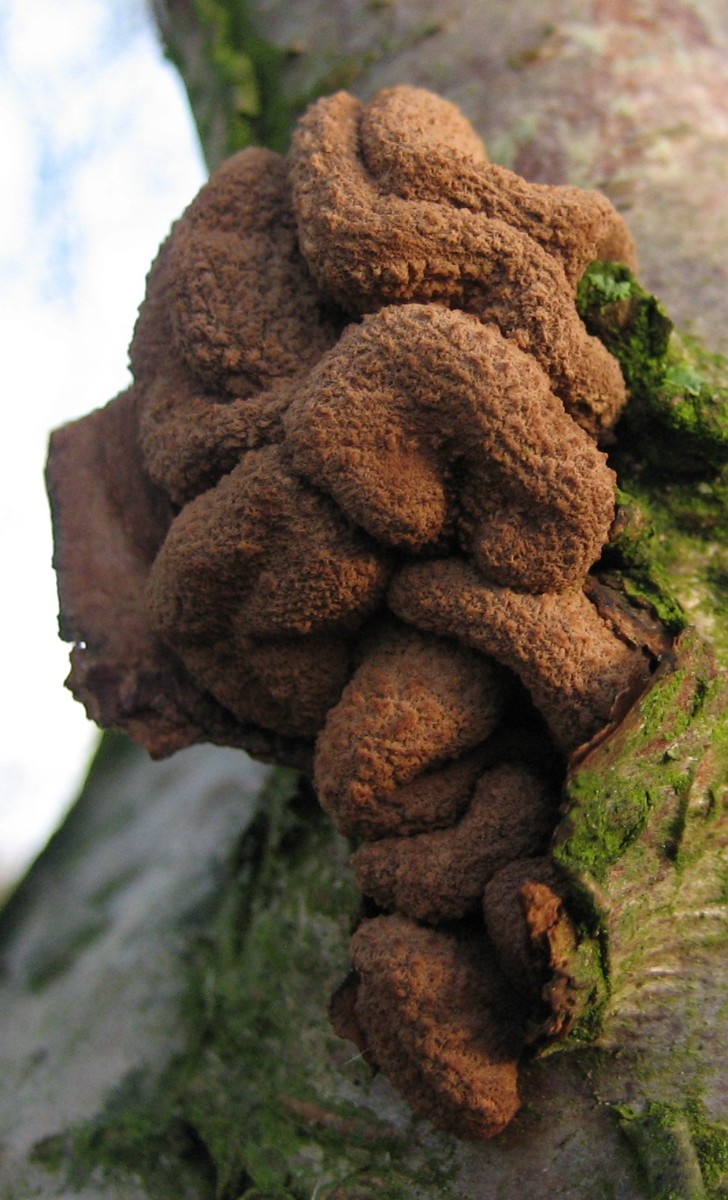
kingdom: Fungi
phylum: Ascomycota
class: Leotiomycetes
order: Helotiales
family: Cenangiaceae
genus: Encoelia
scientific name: Encoelia furfuracea
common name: hassel-læderskive
